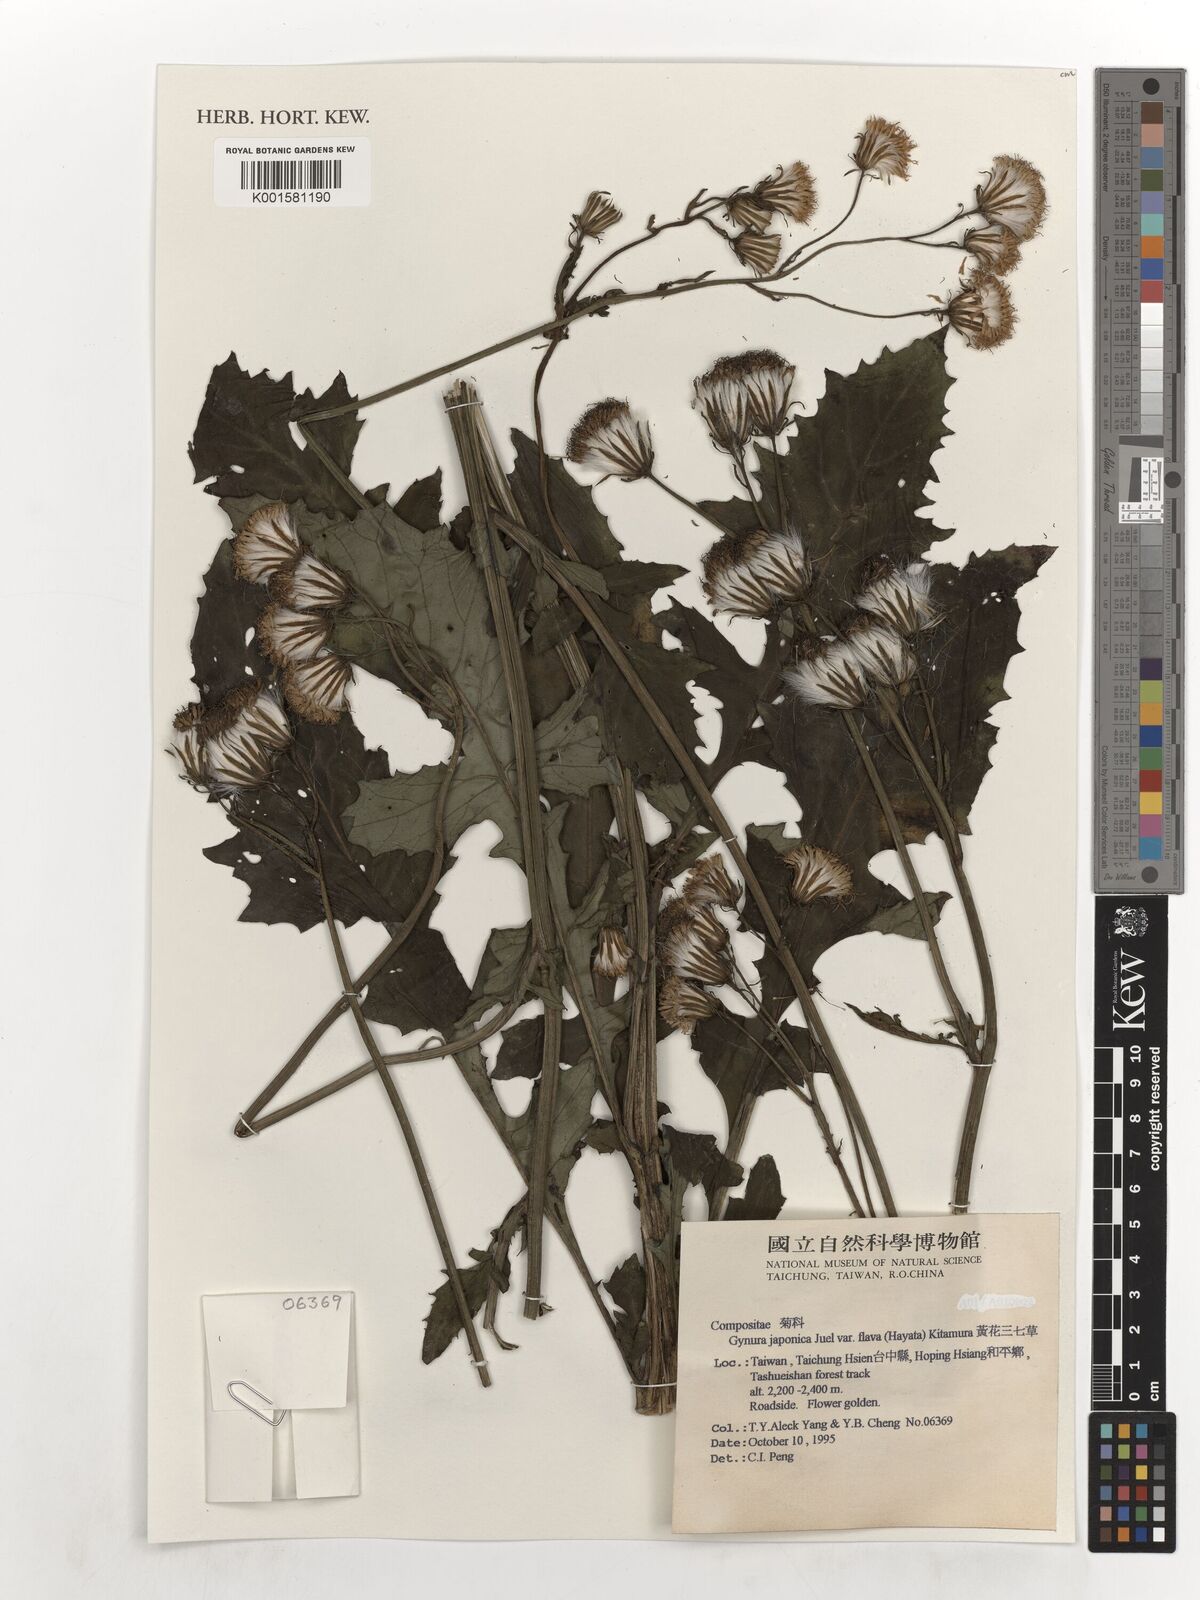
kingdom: Plantae
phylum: Tracheophyta
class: Magnoliopsida
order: Asterales
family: Asteraceae
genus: Gynura
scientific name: Gynura japonica
